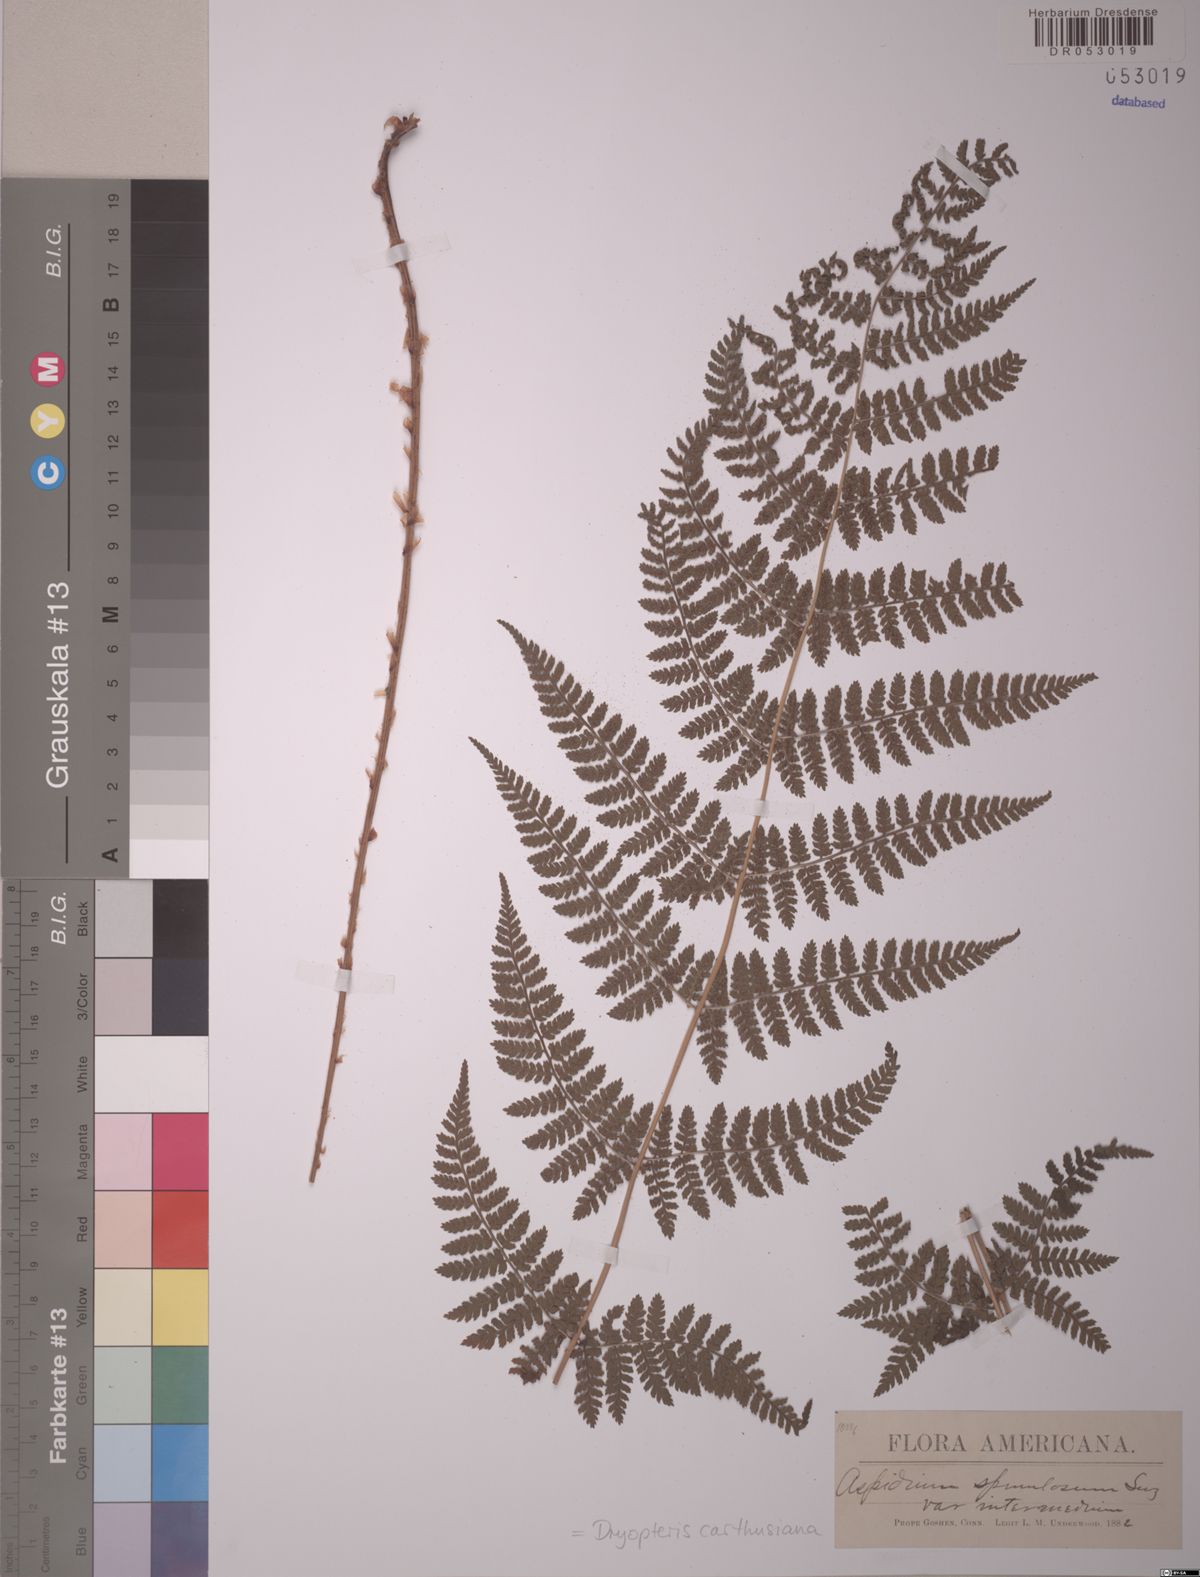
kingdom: Plantae
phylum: Tracheophyta
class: Polypodiopsida
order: Polypodiales
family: Dryopteridaceae
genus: Dryopteris
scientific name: Dryopteris carthusiana
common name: Narrow buckler-fern
